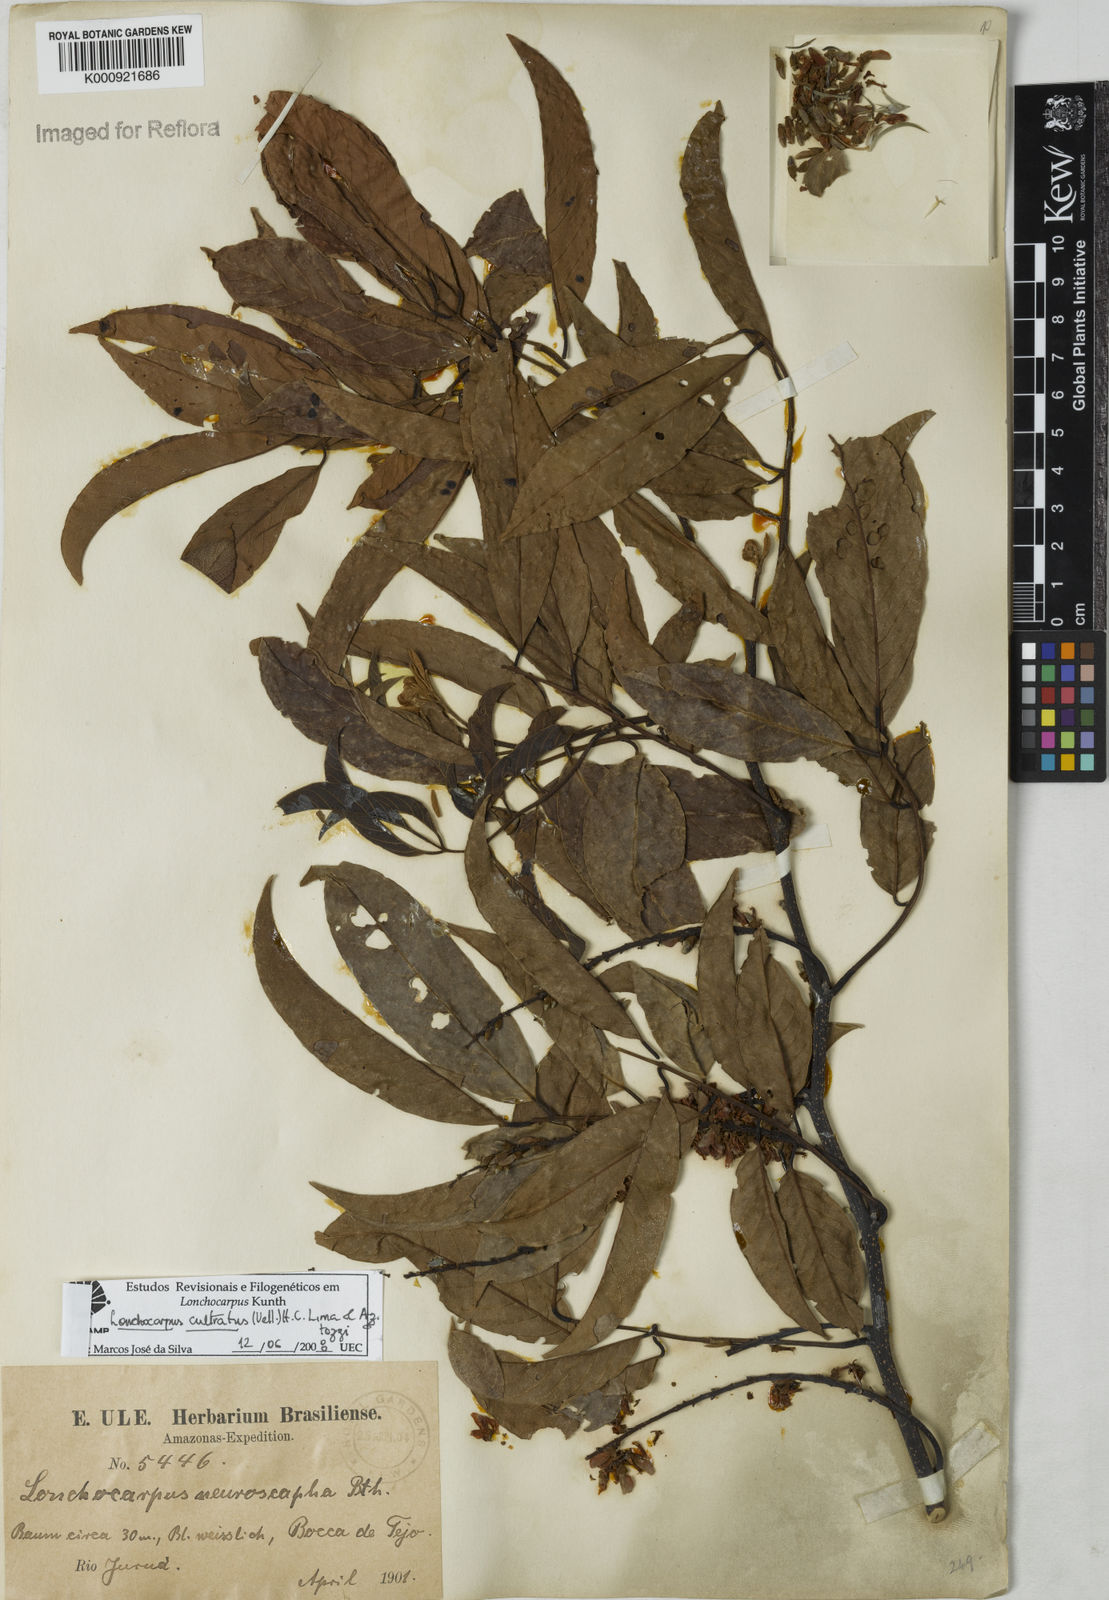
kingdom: Plantae
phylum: Tracheophyta
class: Magnoliopsida
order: Fabales
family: Fabaceae
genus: Lonchocarpus
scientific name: Lonchocarpus cultratus
